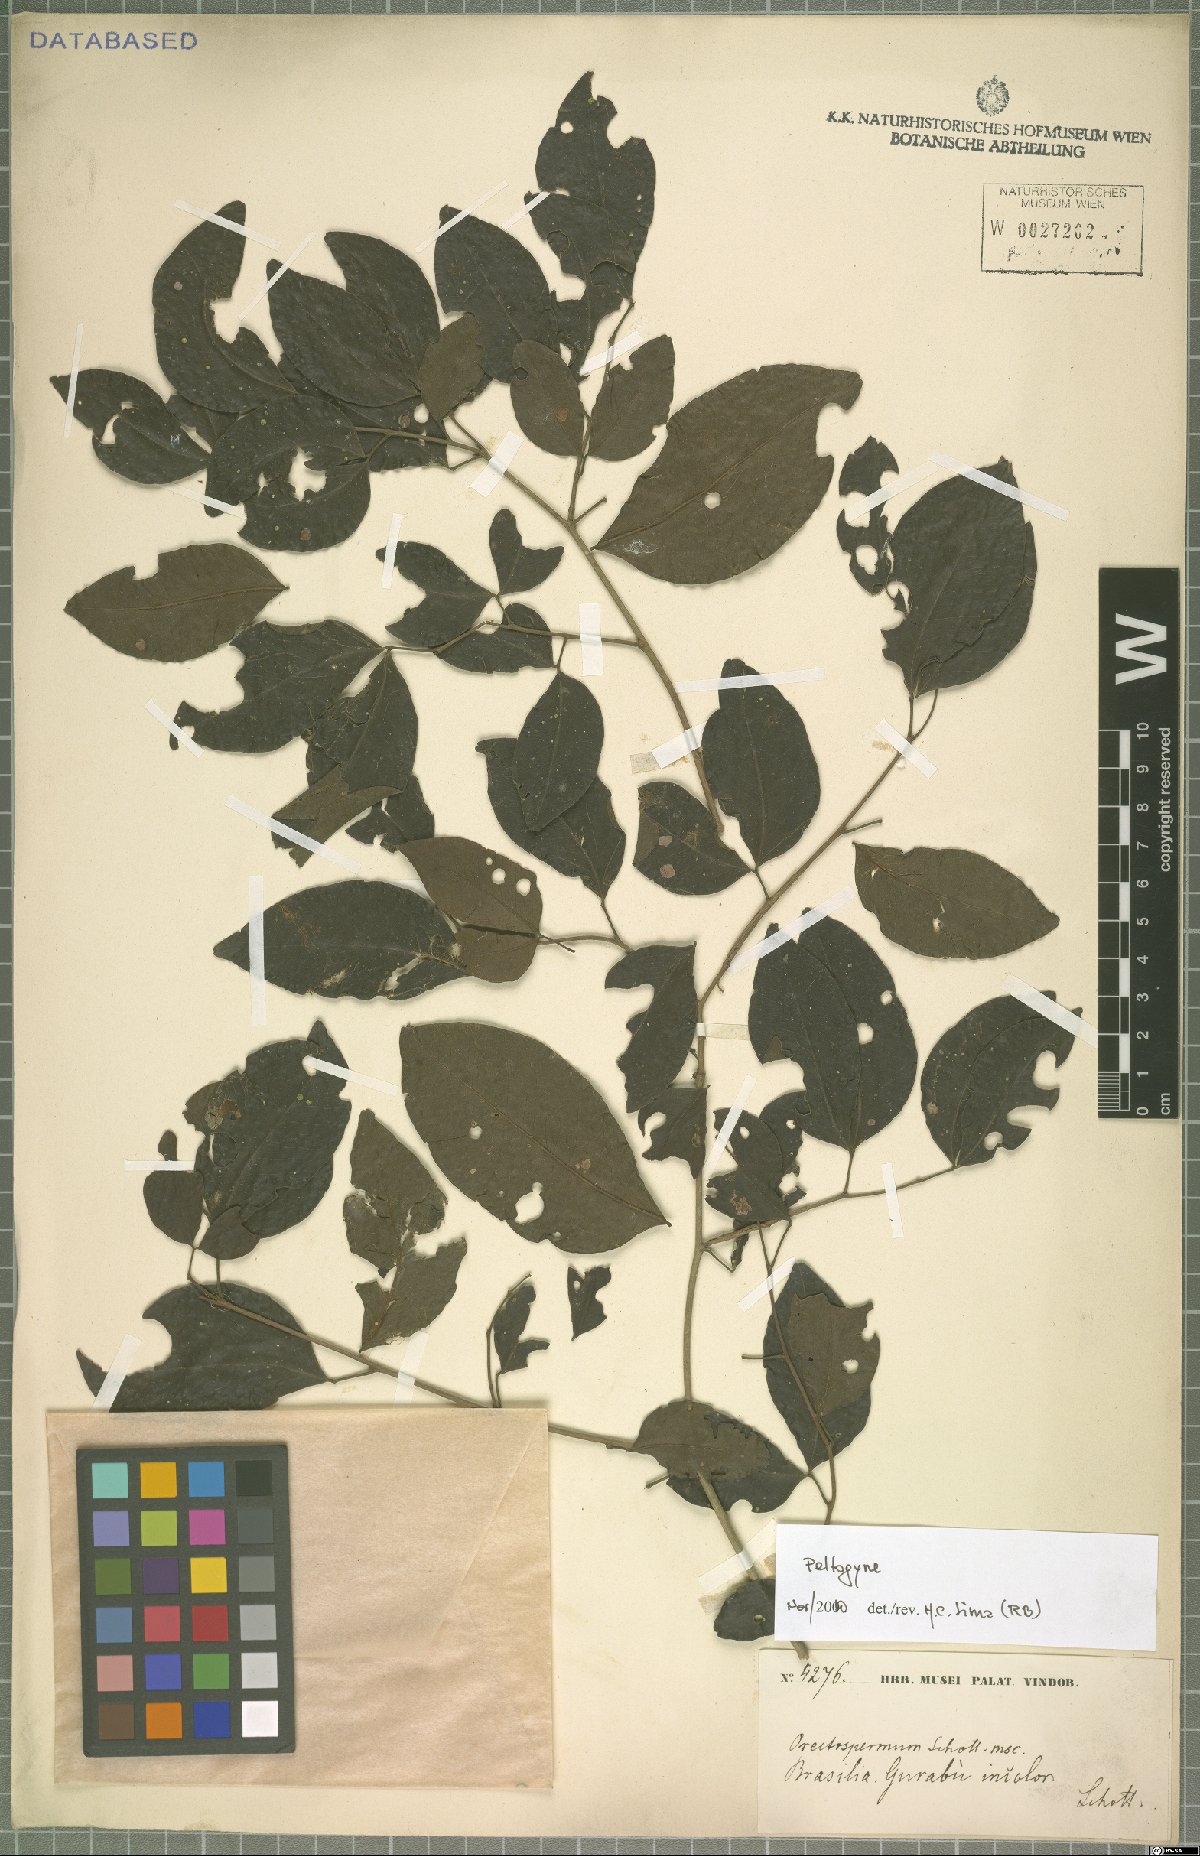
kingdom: Plantae
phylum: Tracheophyta
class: Magnoliopsida
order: Fabales
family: Fabaceae
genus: Peltogyne
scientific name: Peltogyne
